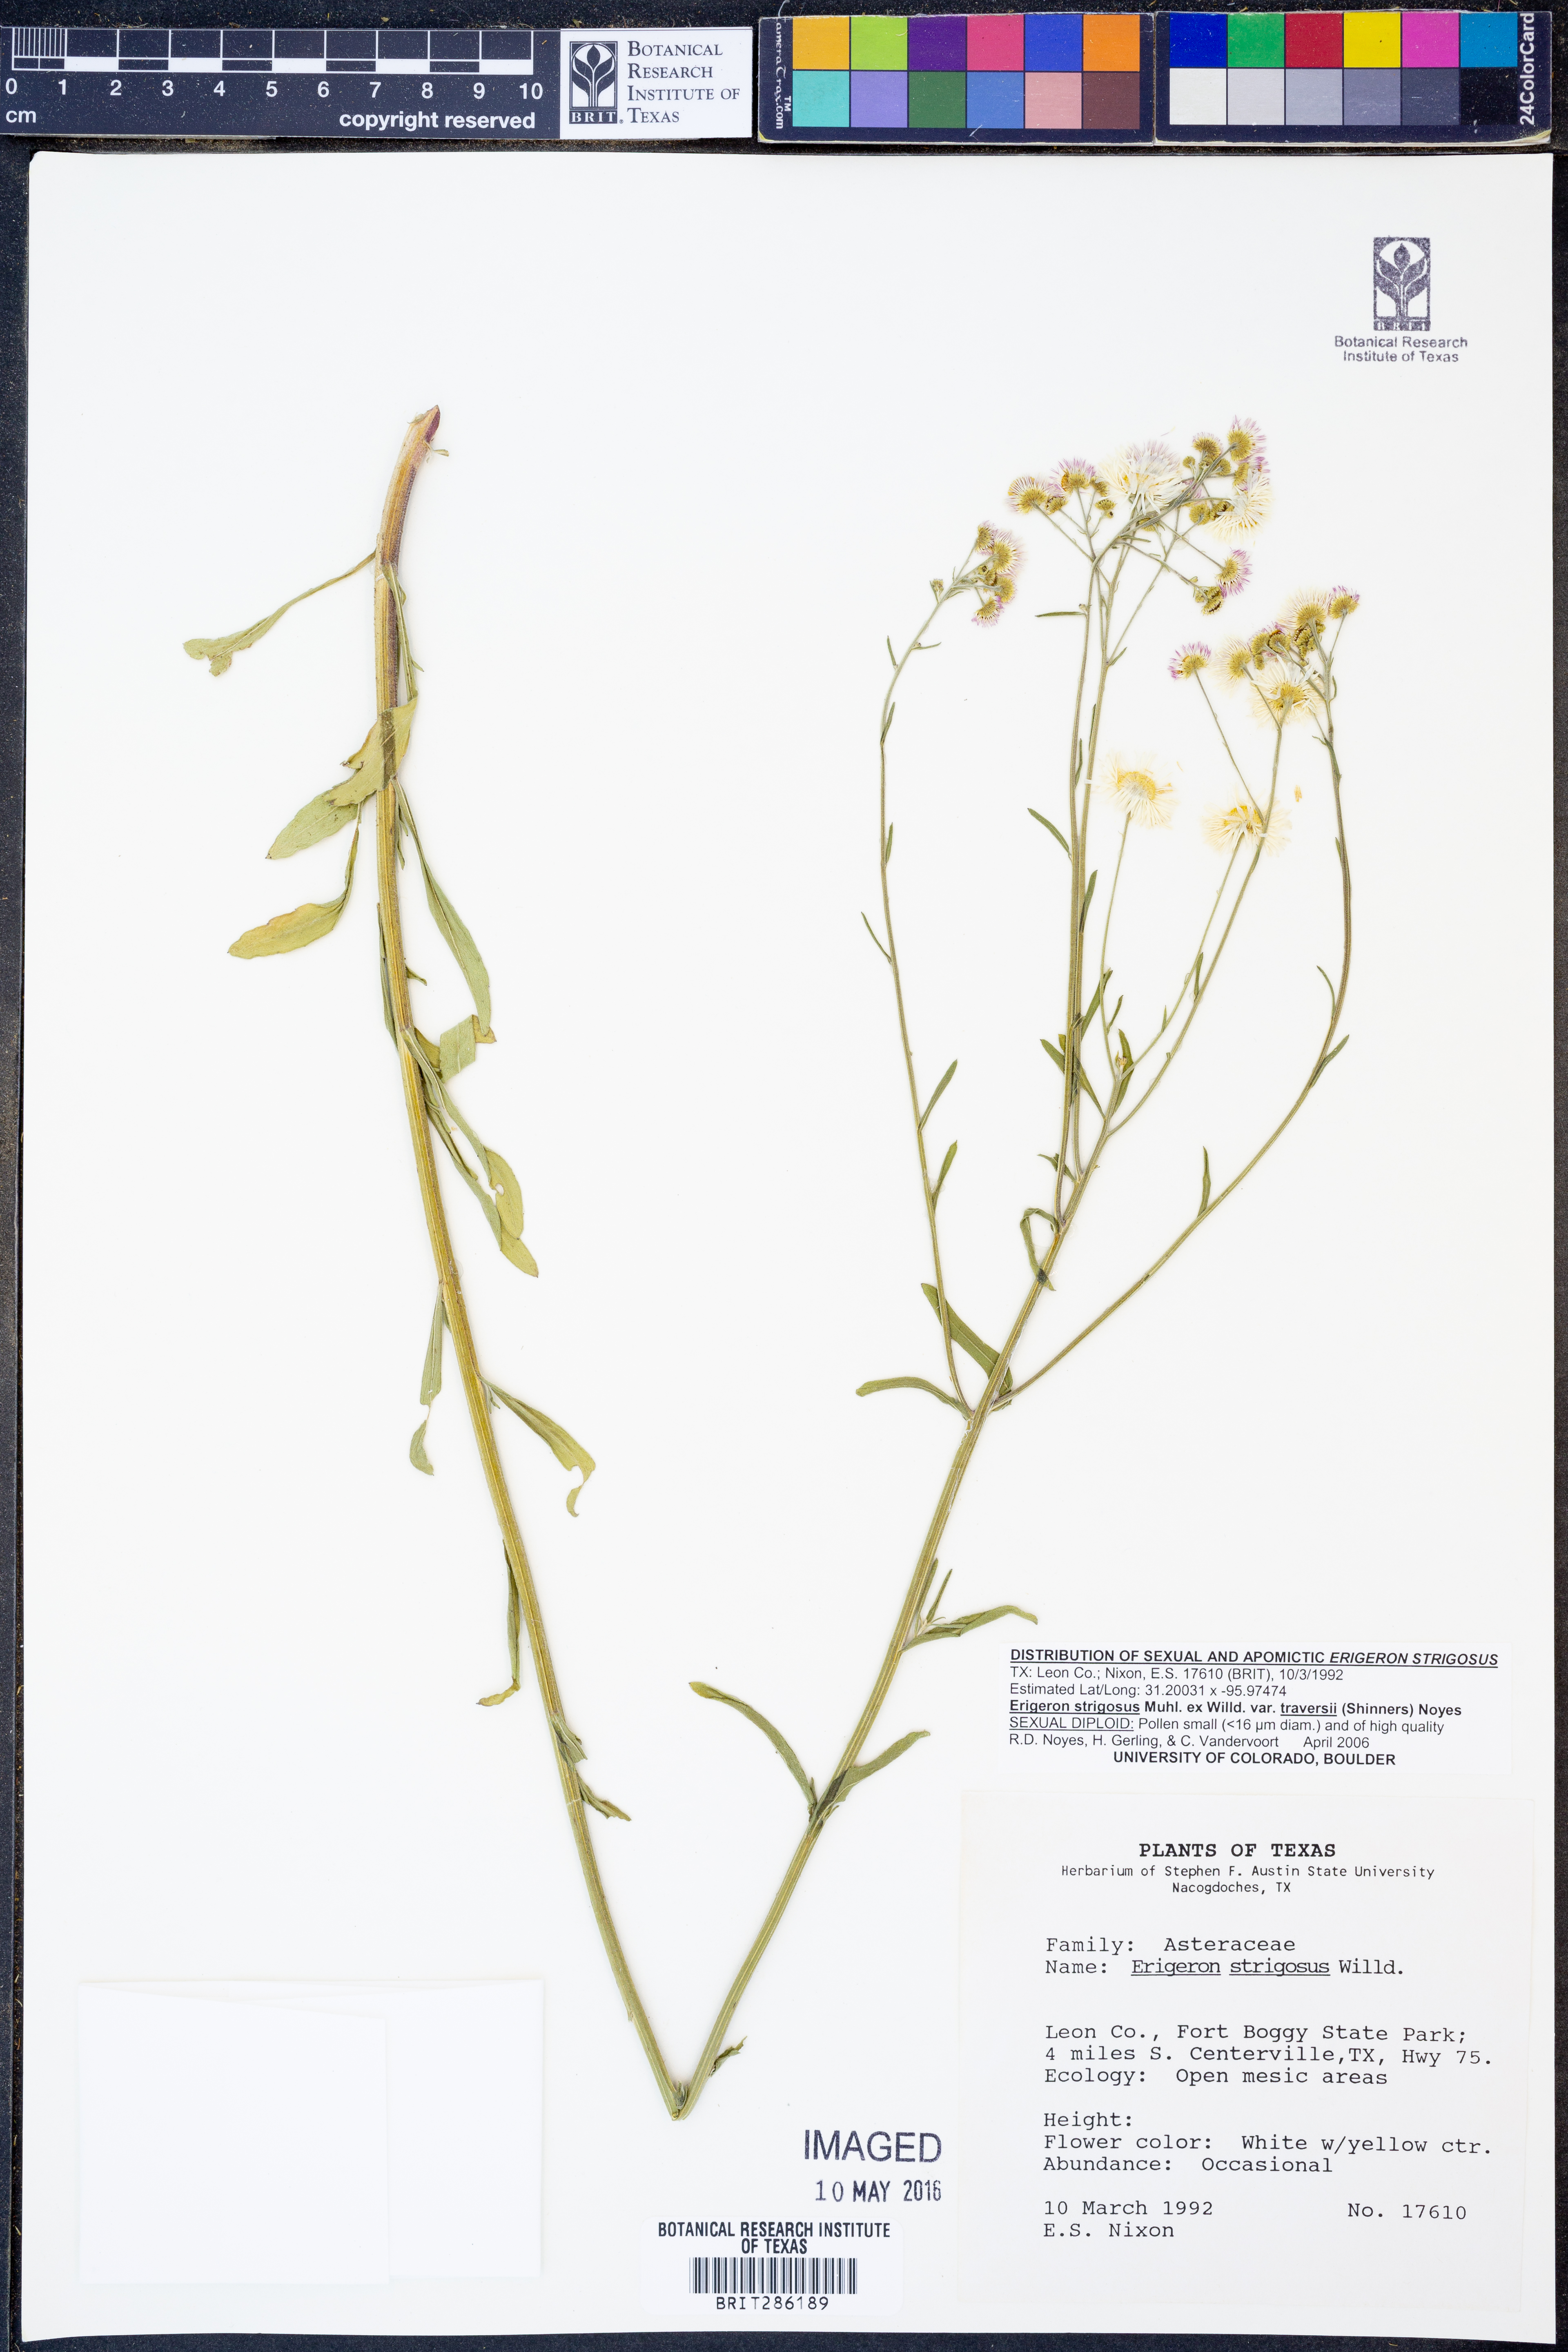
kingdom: Plantae
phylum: Tracheophyta
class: Magnoliopsida
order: Asterales
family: Asteraceae
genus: Erigeron
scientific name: Erigeron strigosus
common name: Common eastern fleabane
